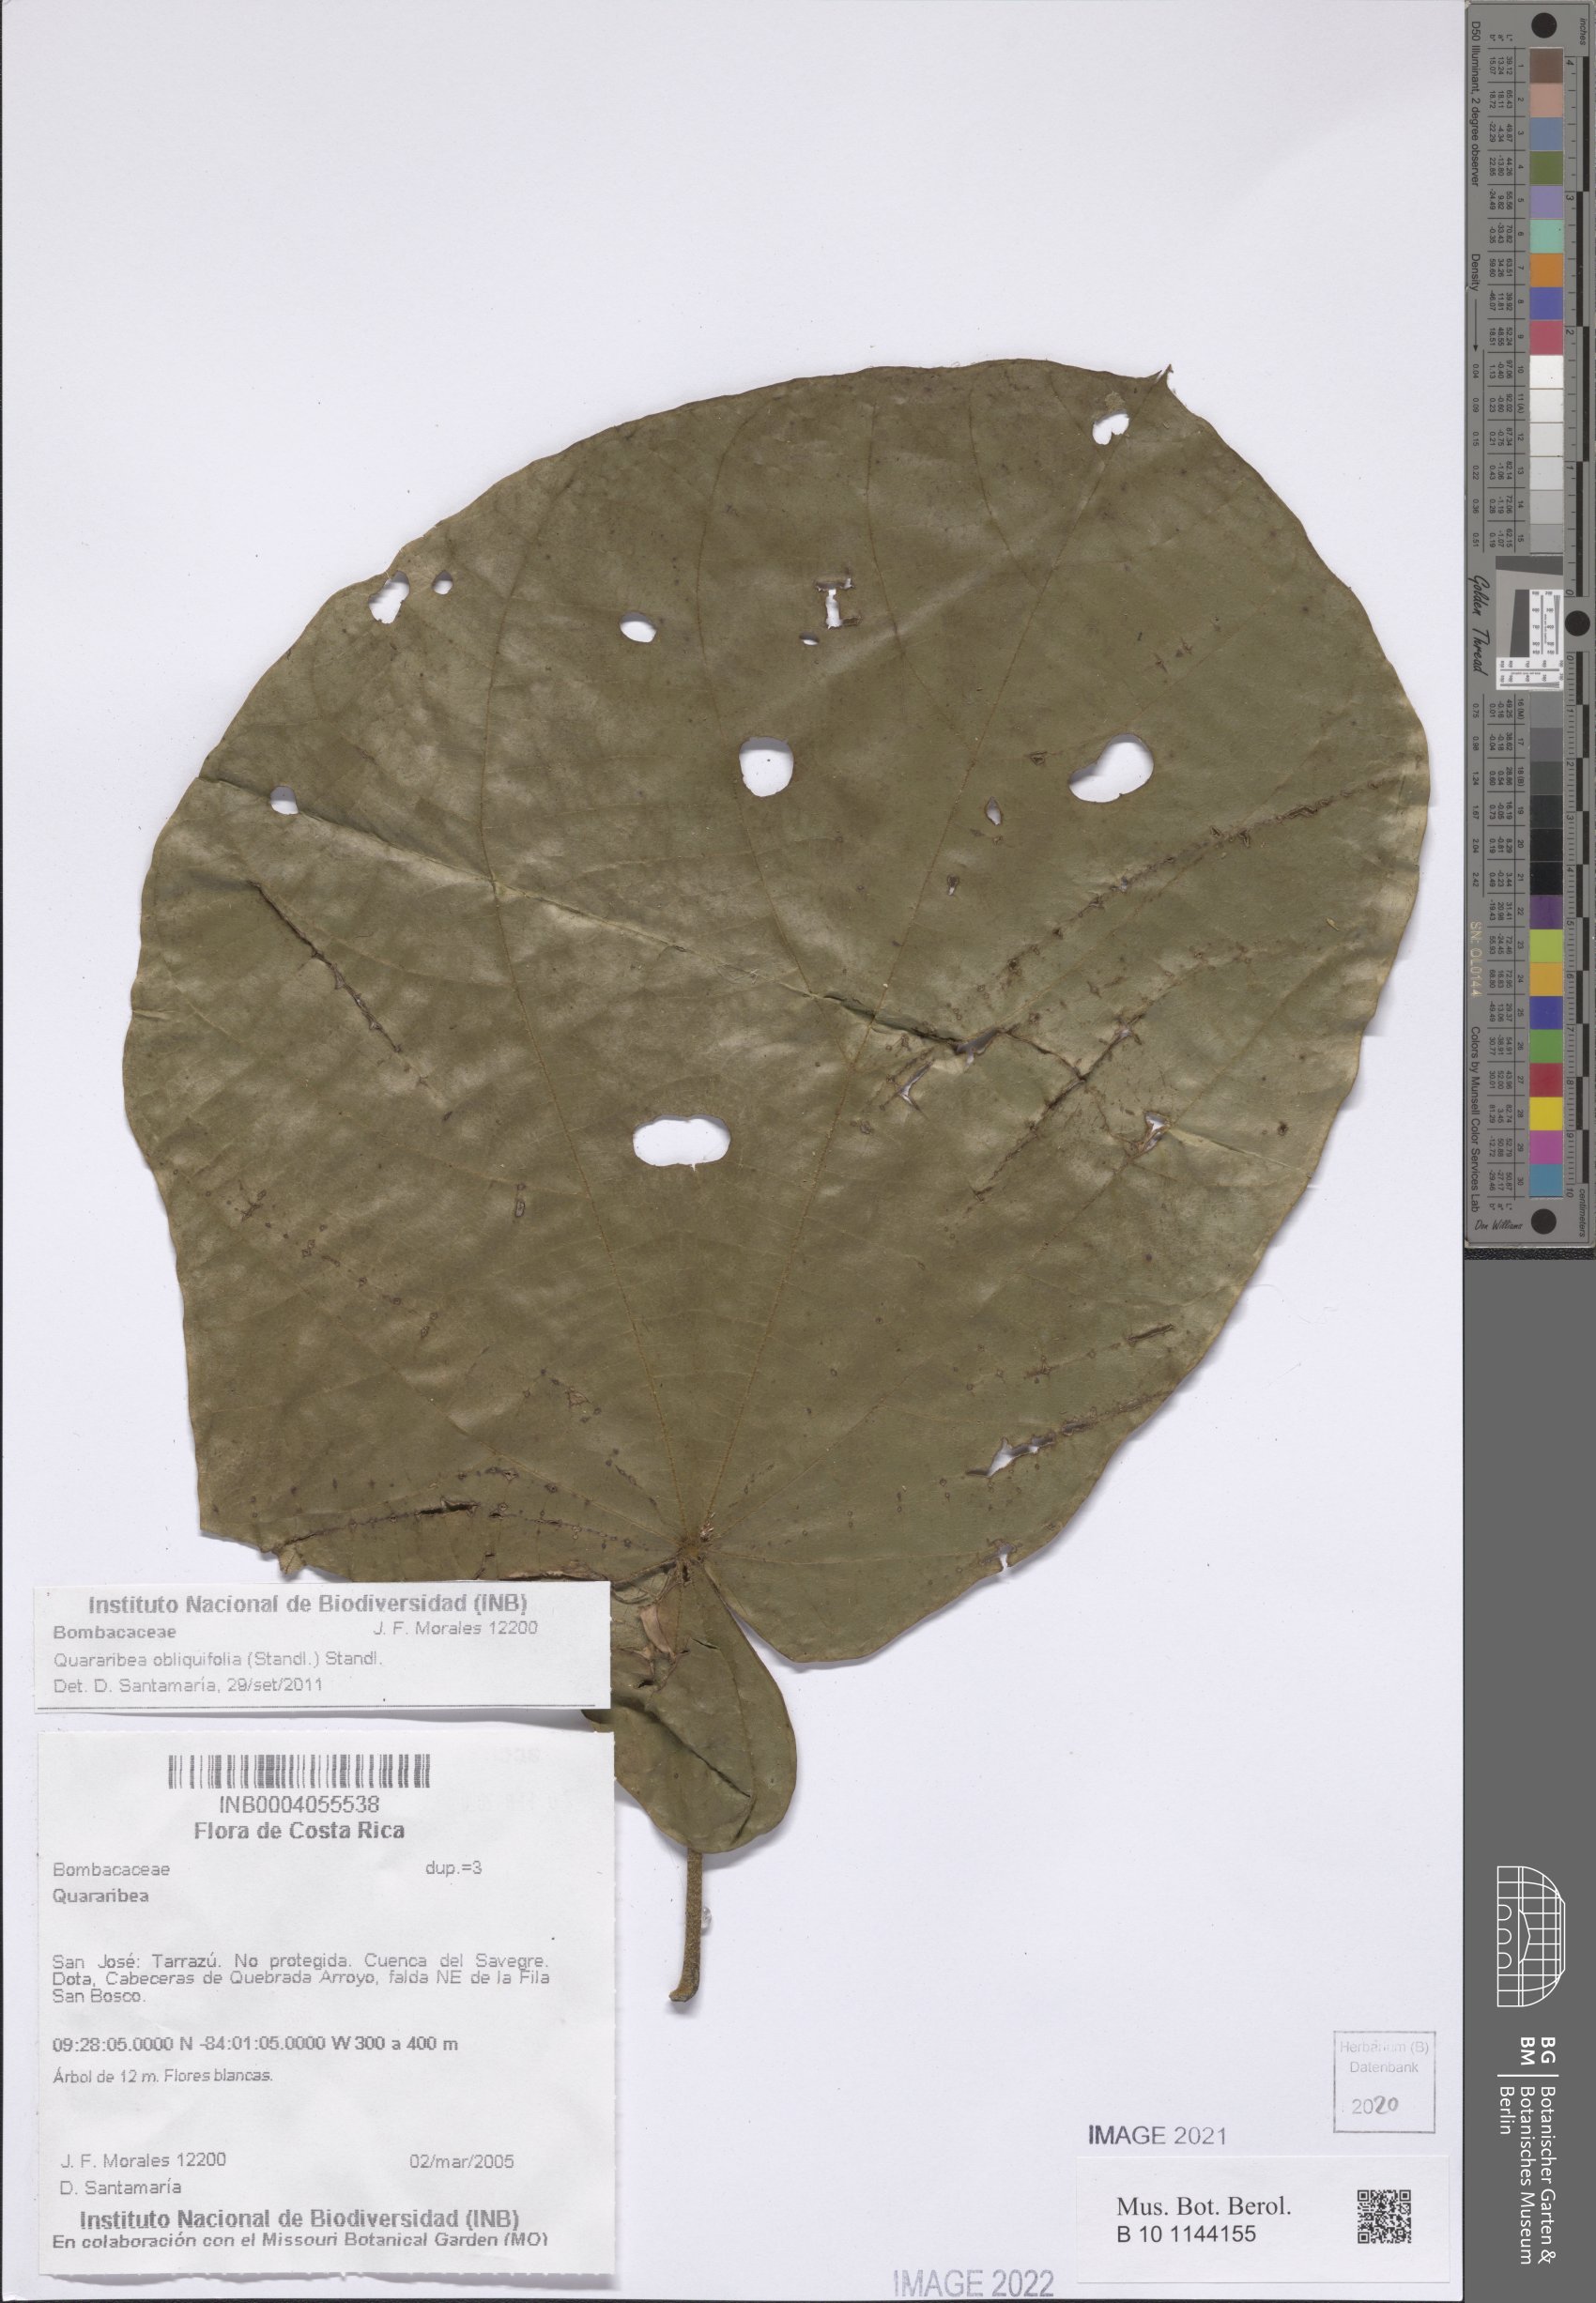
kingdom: Plantae
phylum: Tracheophyta
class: Magnoliopsida
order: Malvales
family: Malvaceae
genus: Matisia
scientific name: Matisia obliquifolia
